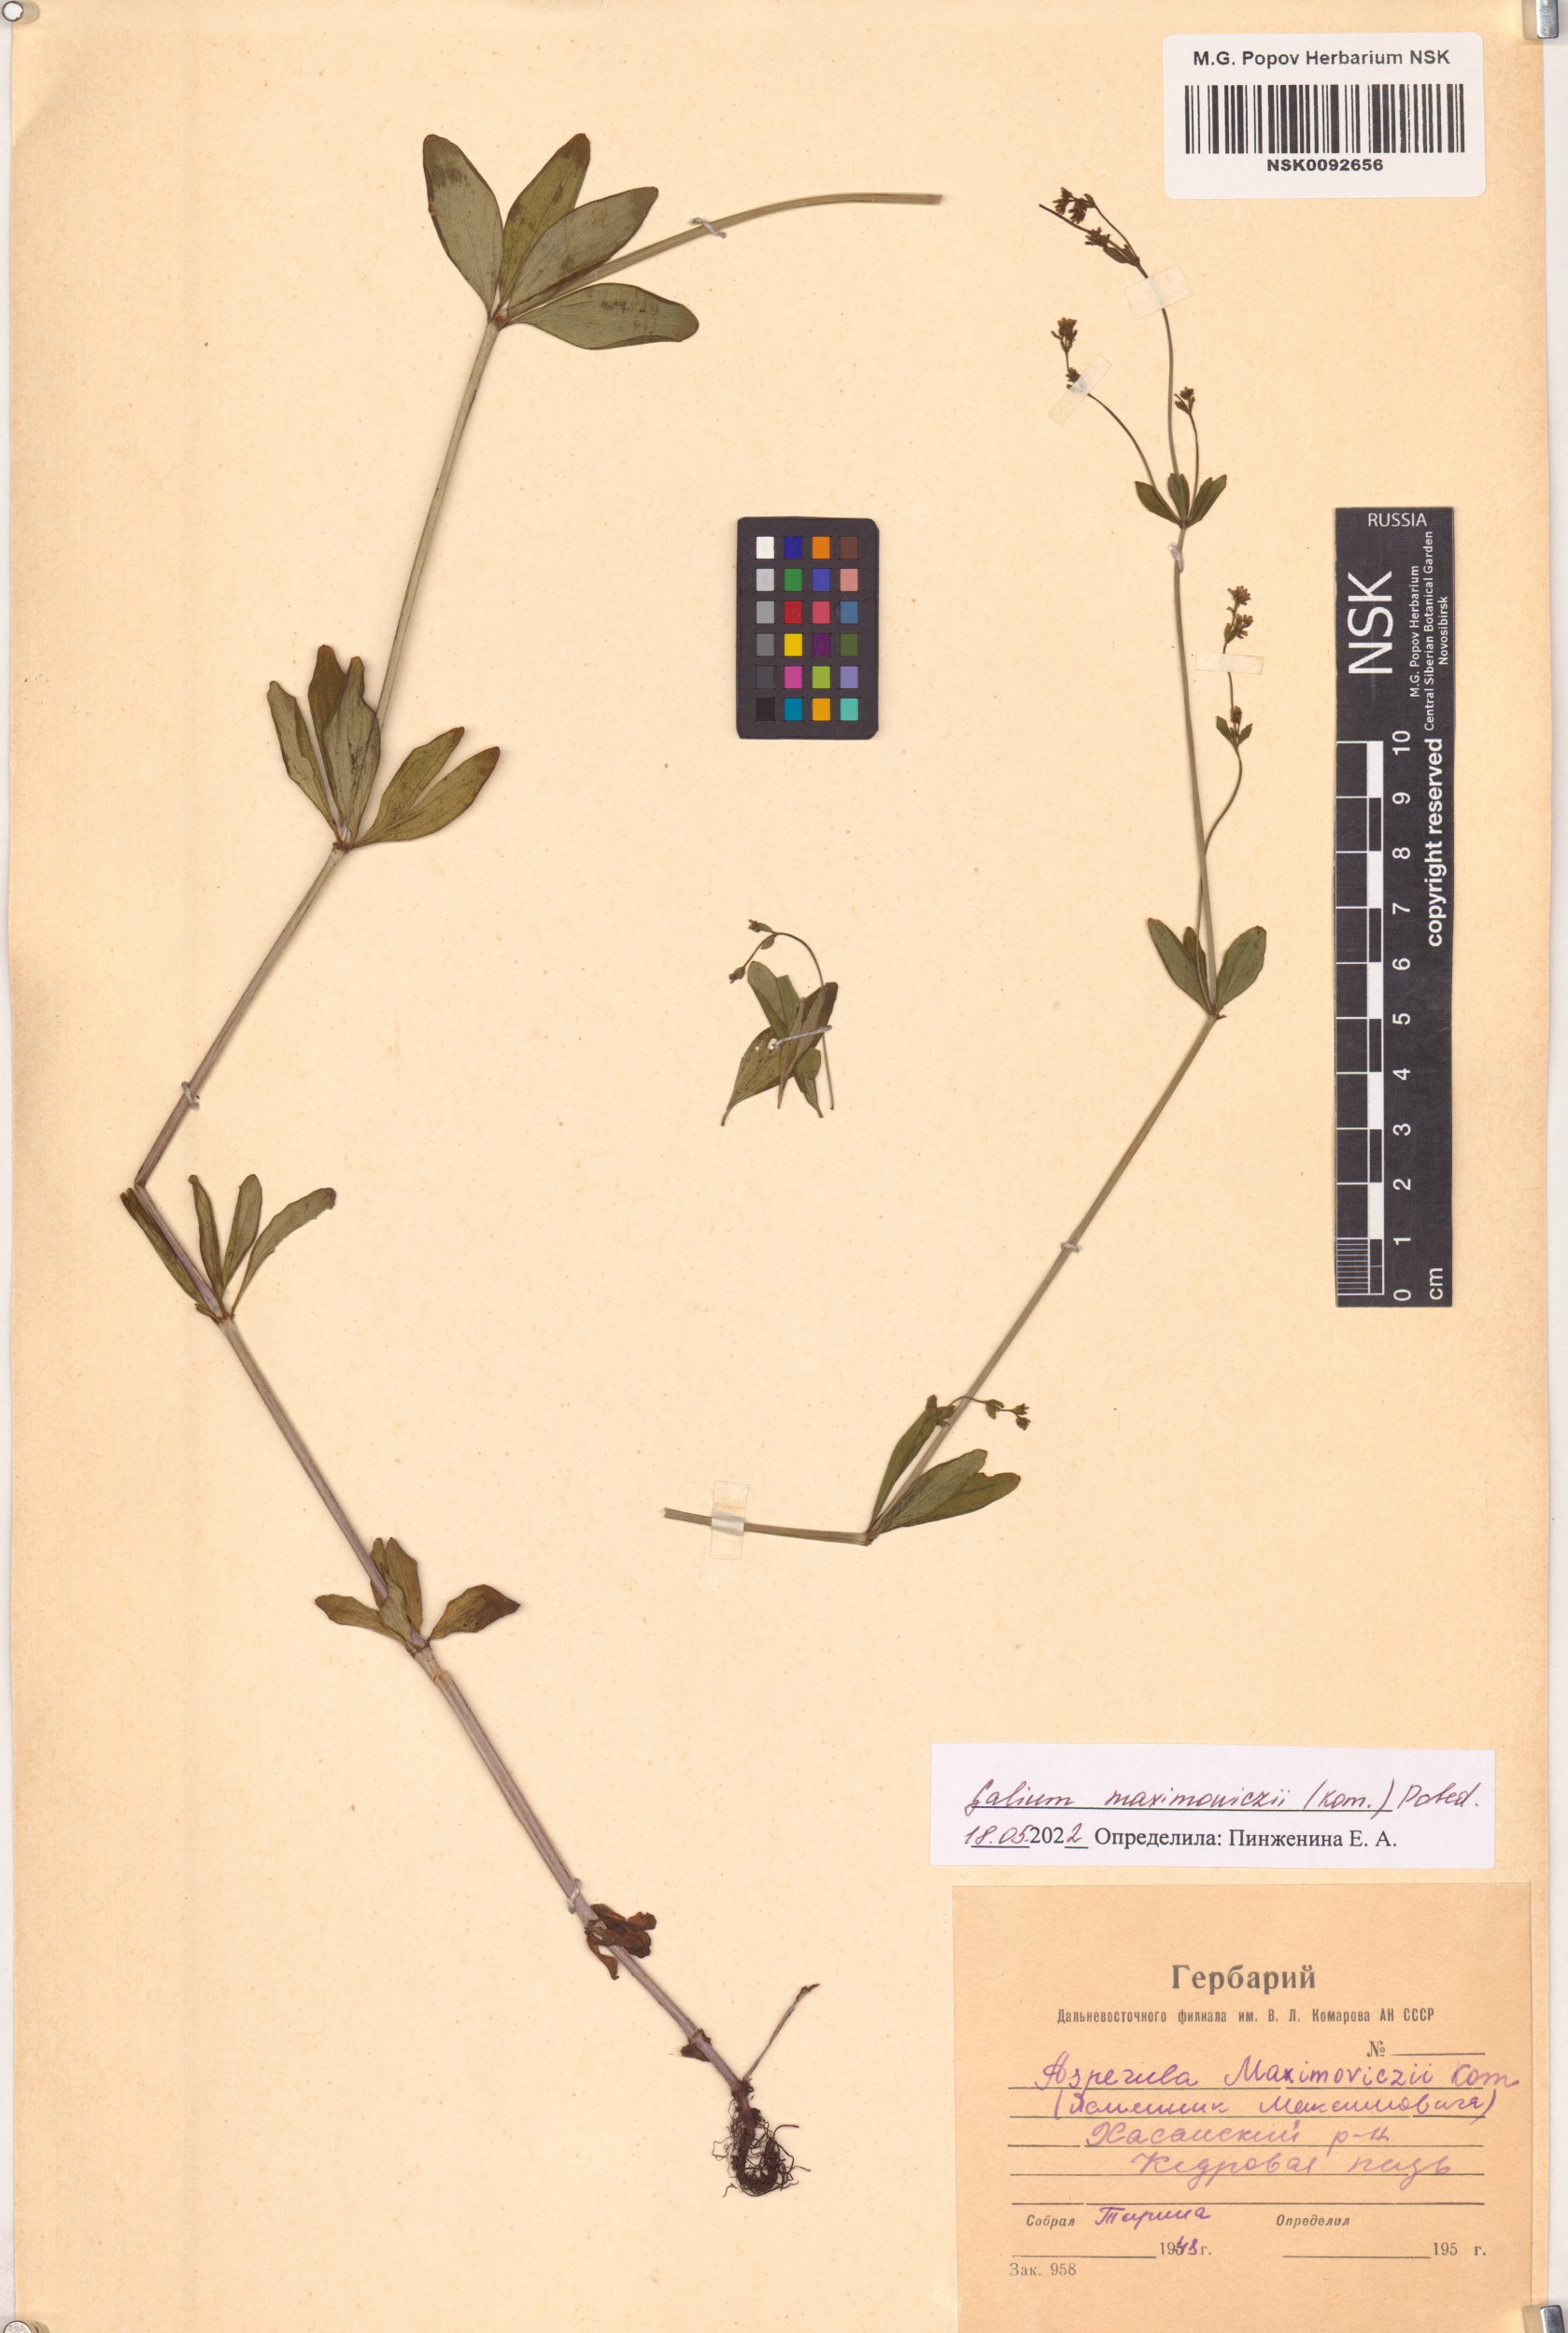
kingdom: Plantae
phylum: Tracheophyta
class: Magnoliopsida
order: Gentianales
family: Rubiaceae
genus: Galium
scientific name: Galium maximoviczii
